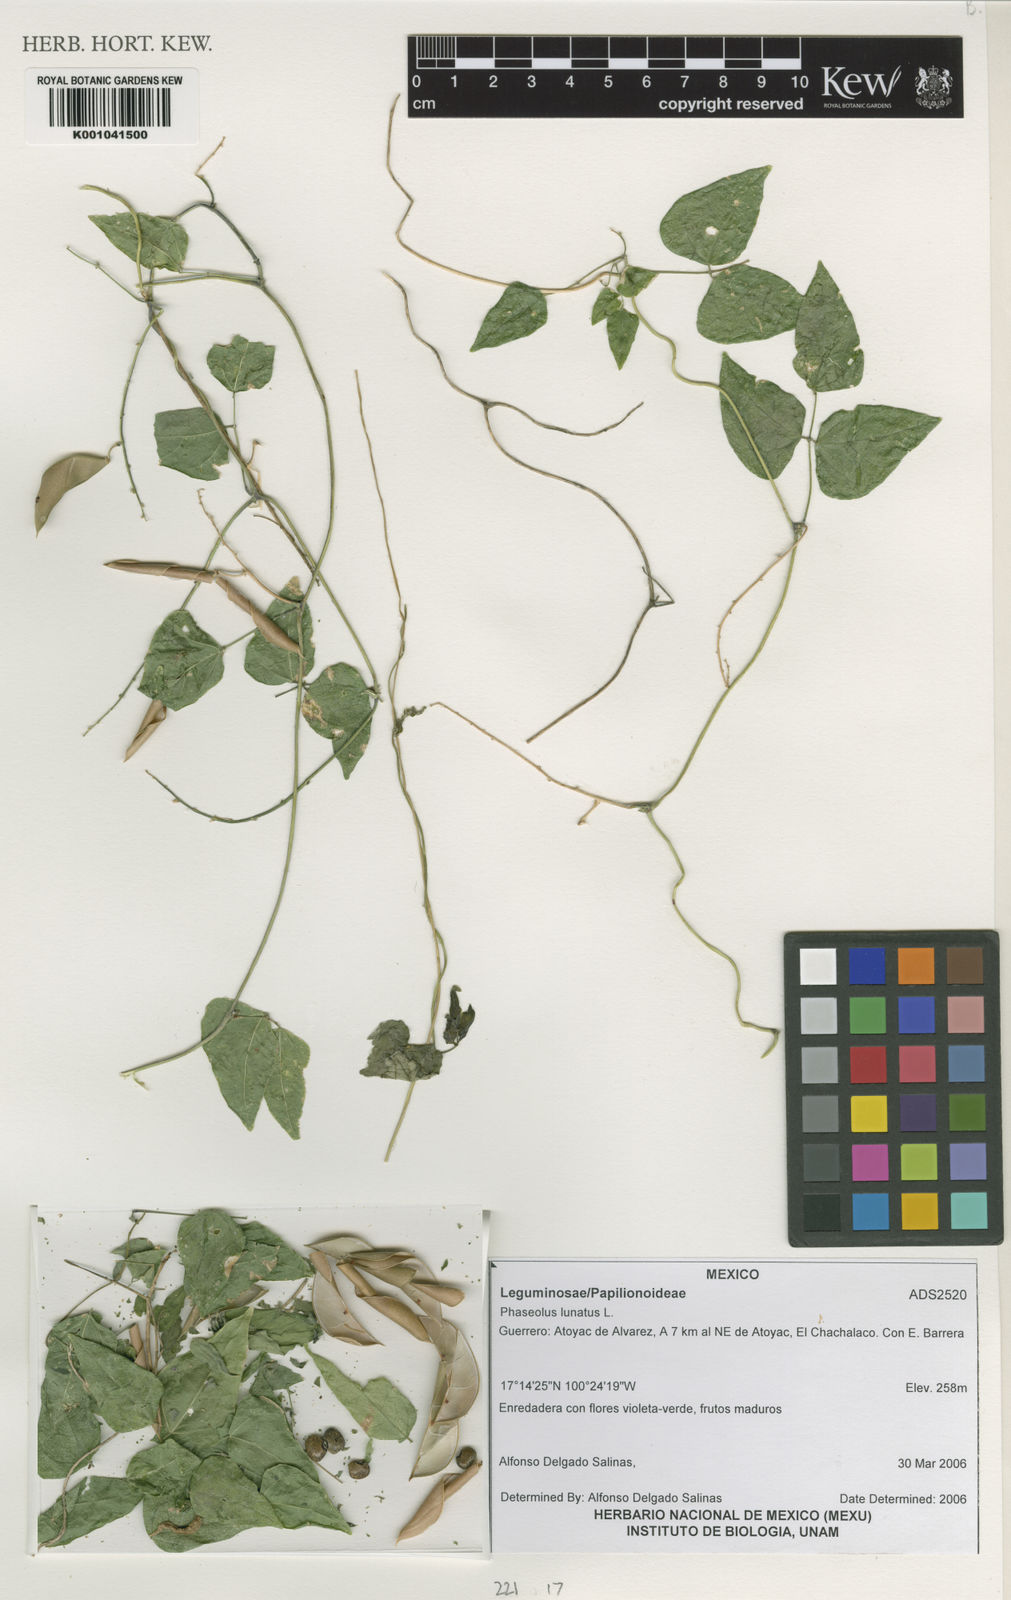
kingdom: Plantae
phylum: Tracheophyta
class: Magnoliopsida
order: Fabales
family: Fabaceae
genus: Phaseolus
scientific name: Phaseolus lunatus
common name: Sieva bean
